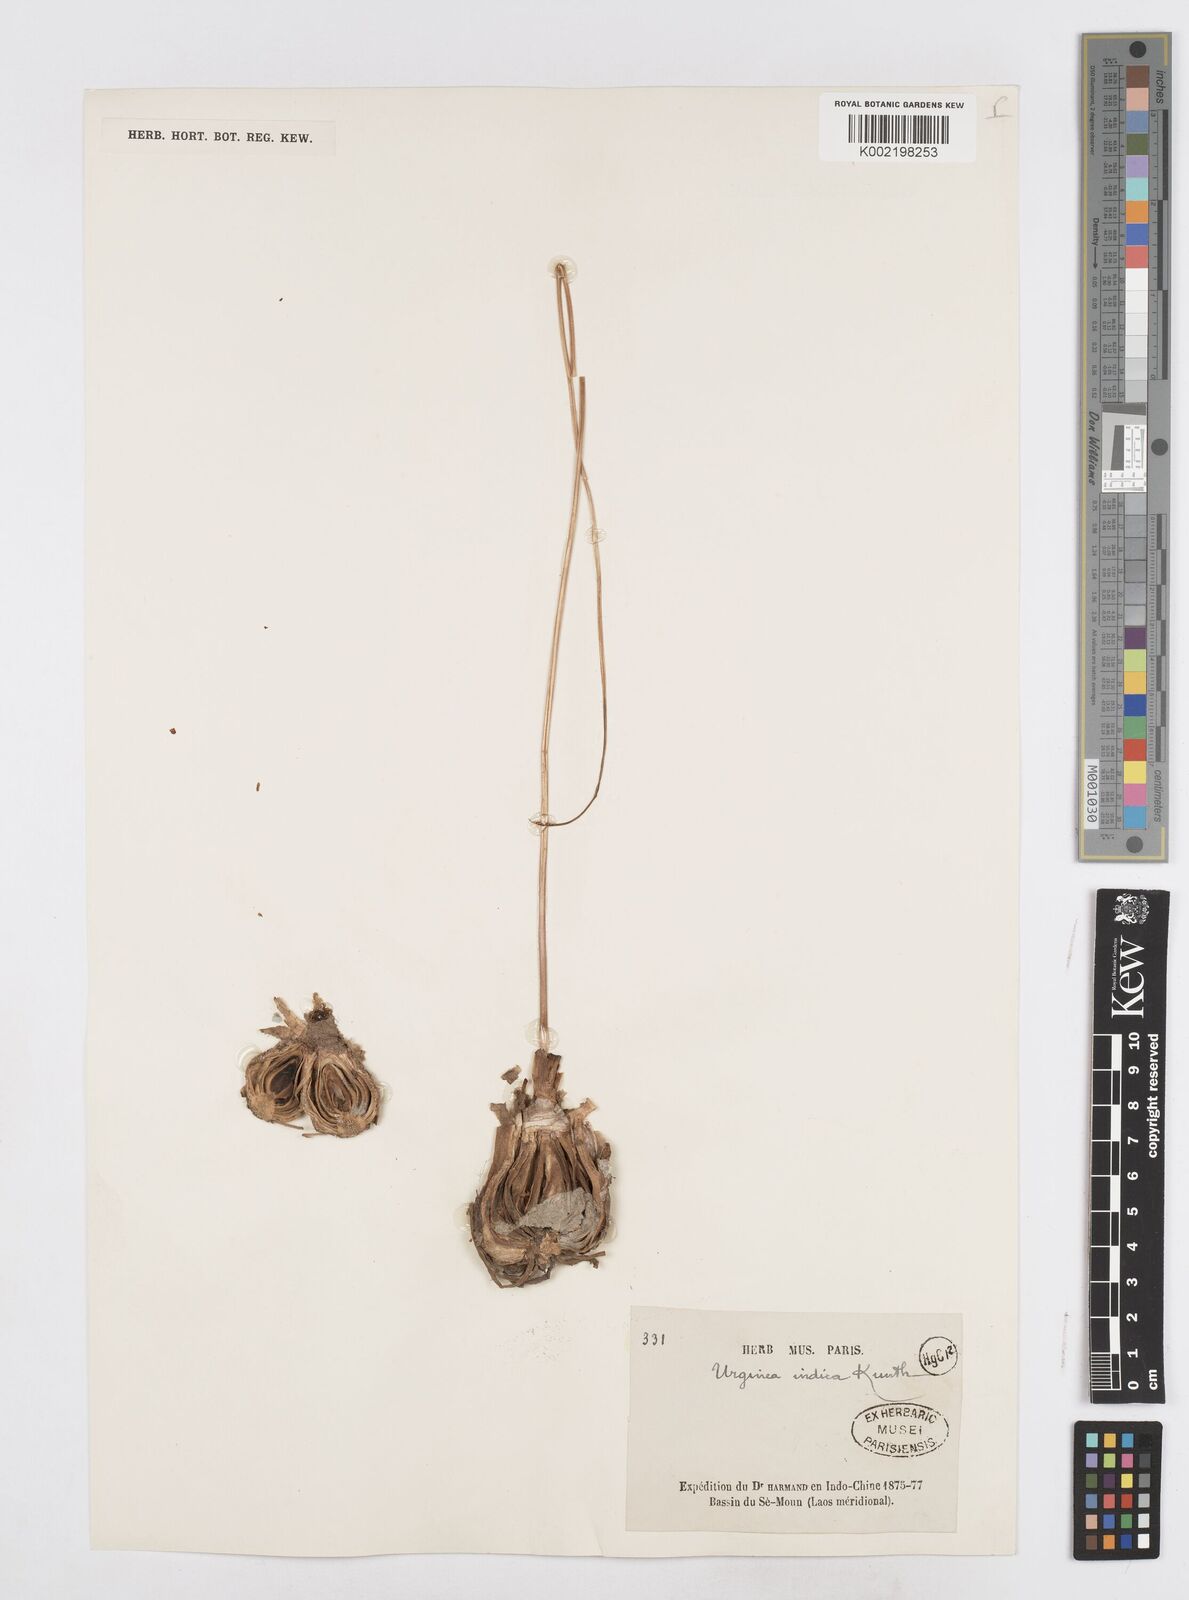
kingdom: Plantae
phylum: Tracheophyta
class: Liliopsida
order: Asparagales
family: Asparagaceae
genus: Drimia
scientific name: Drimia indica
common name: Indian-squill
